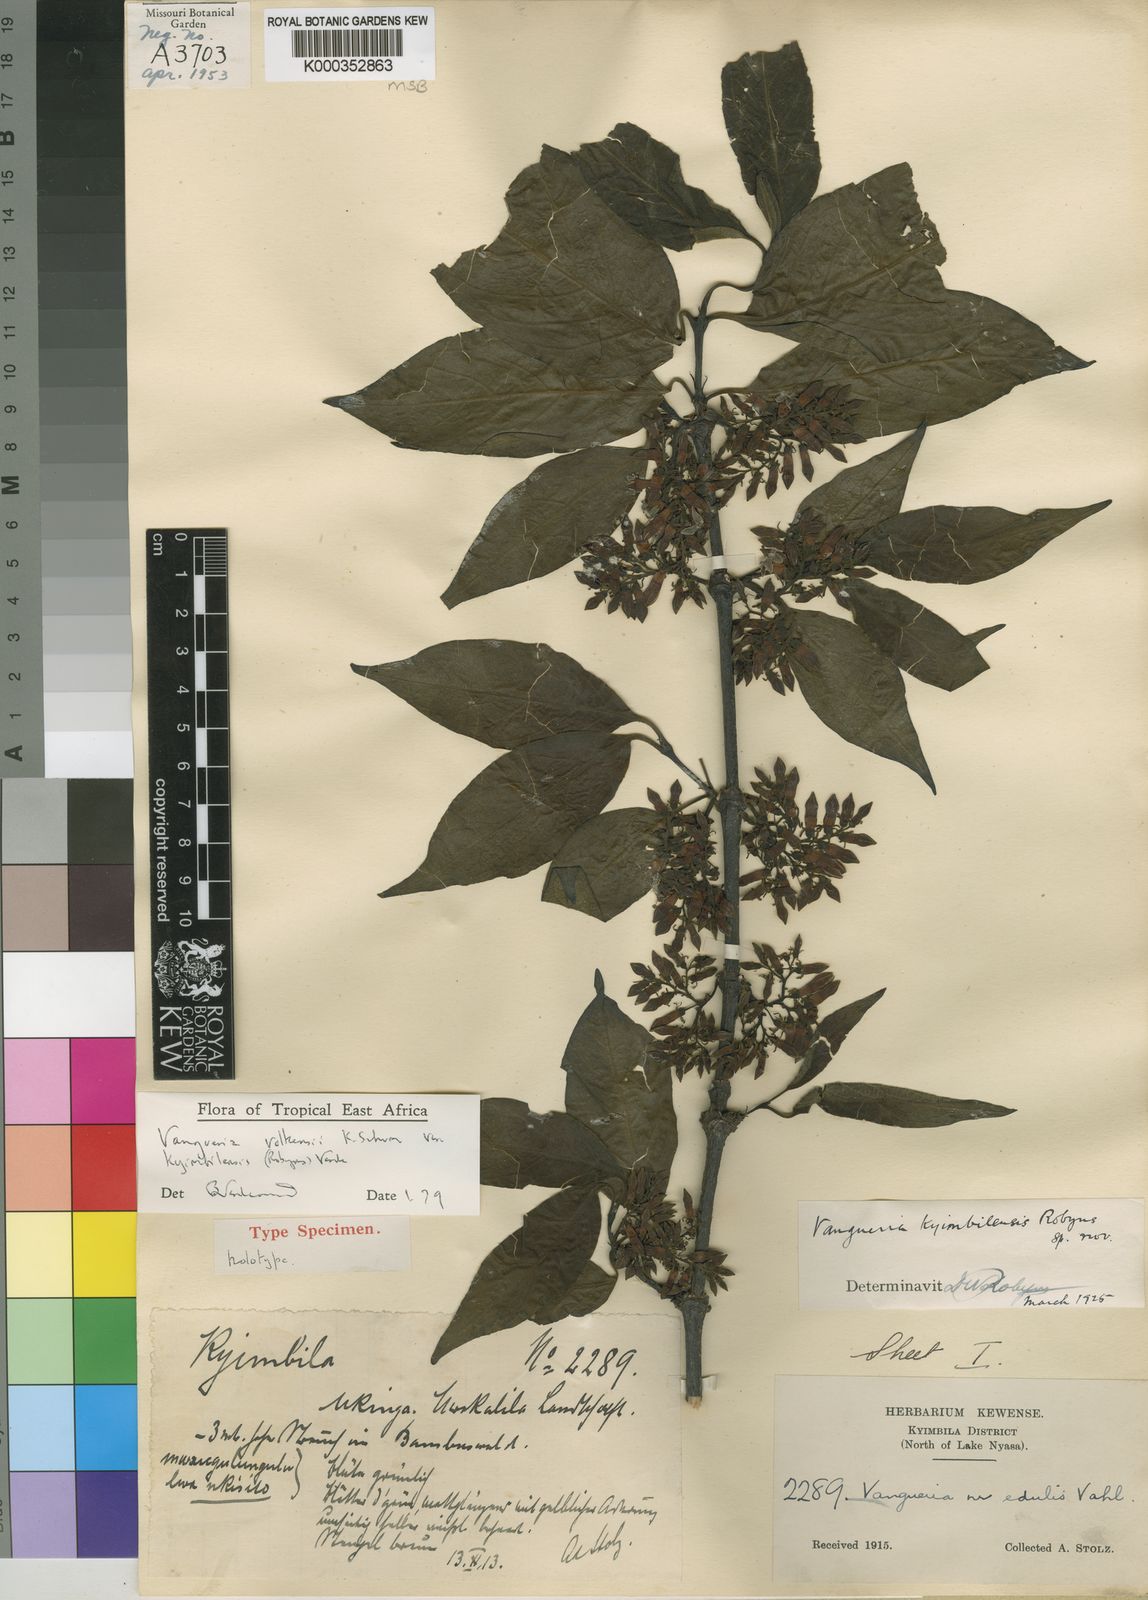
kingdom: Plantae
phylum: Tracheophyta
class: Magnoliopsida
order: Gentianales
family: Rubiaceae
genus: Vangueria
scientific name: Vangueria volkensii
